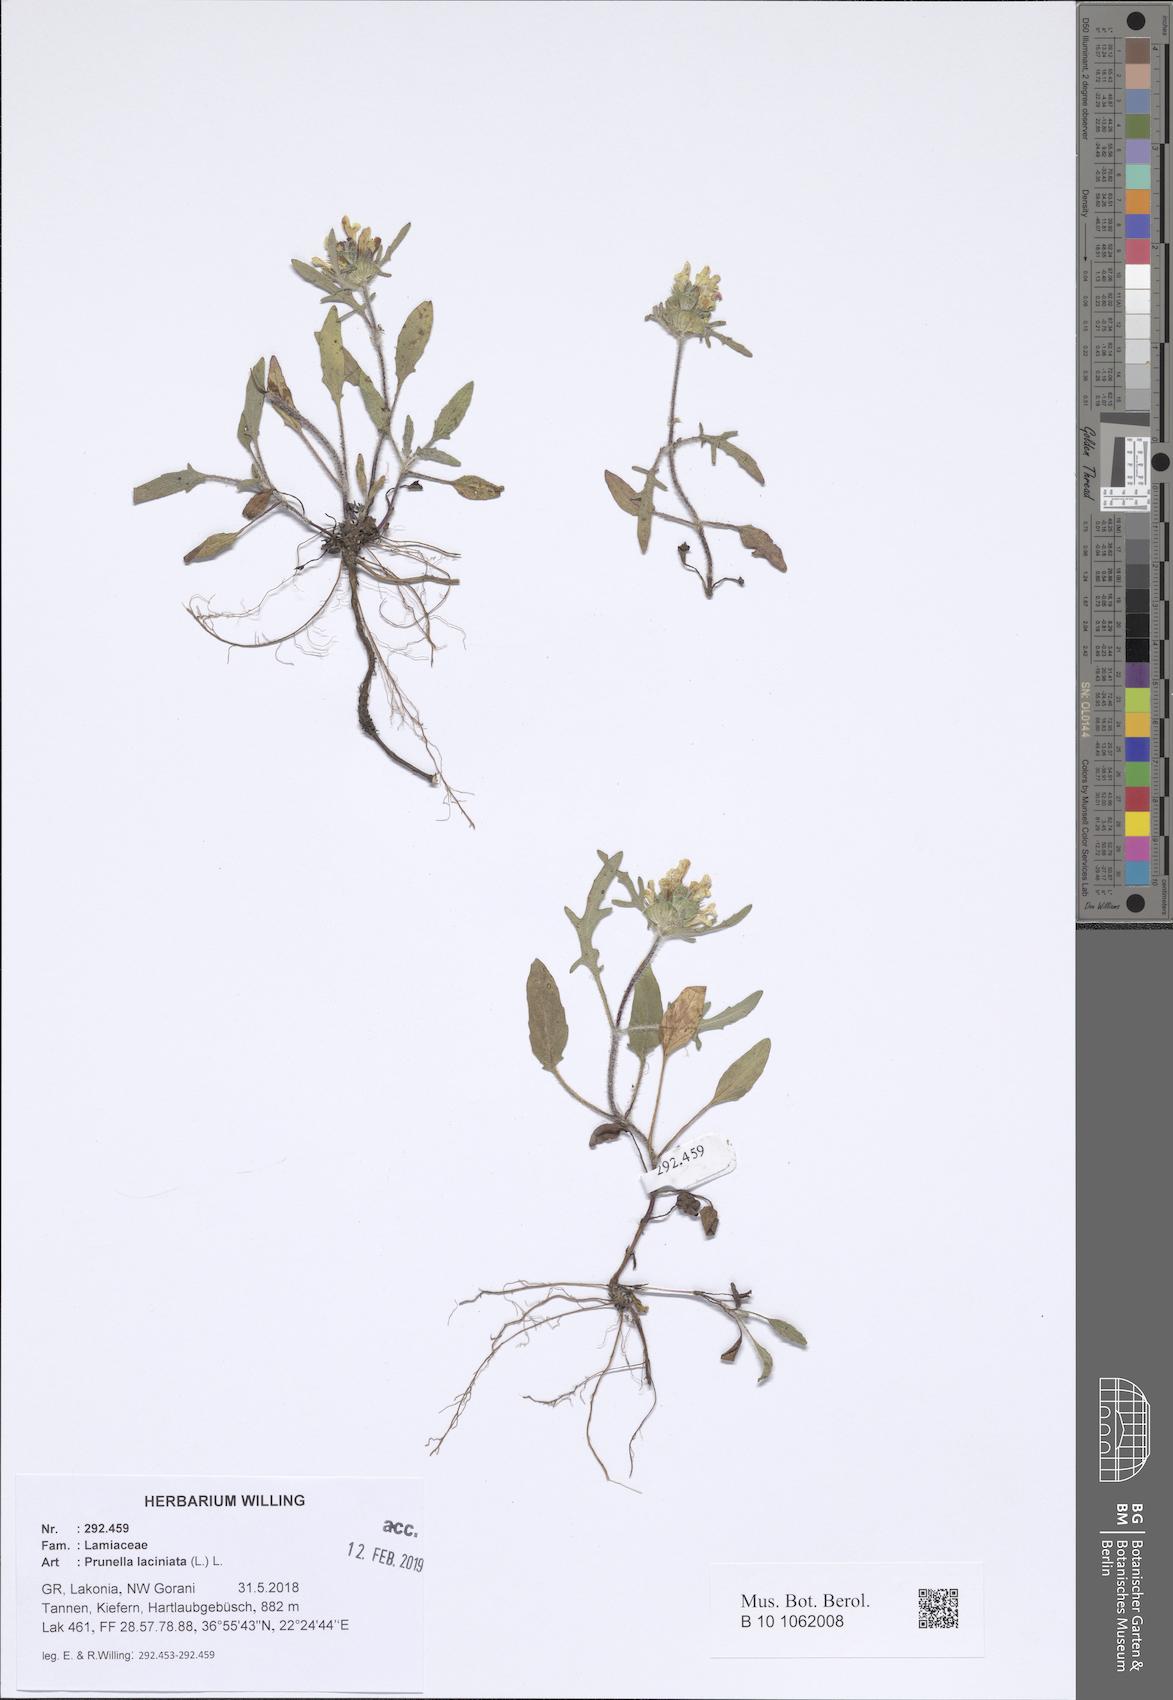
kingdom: Plantae
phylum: Tracheophyta
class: Magnoliopsida
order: Lamiales
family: Lamiaceae
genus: Prunella
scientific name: Prunella laciniata
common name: Cut-leaved selfheal
